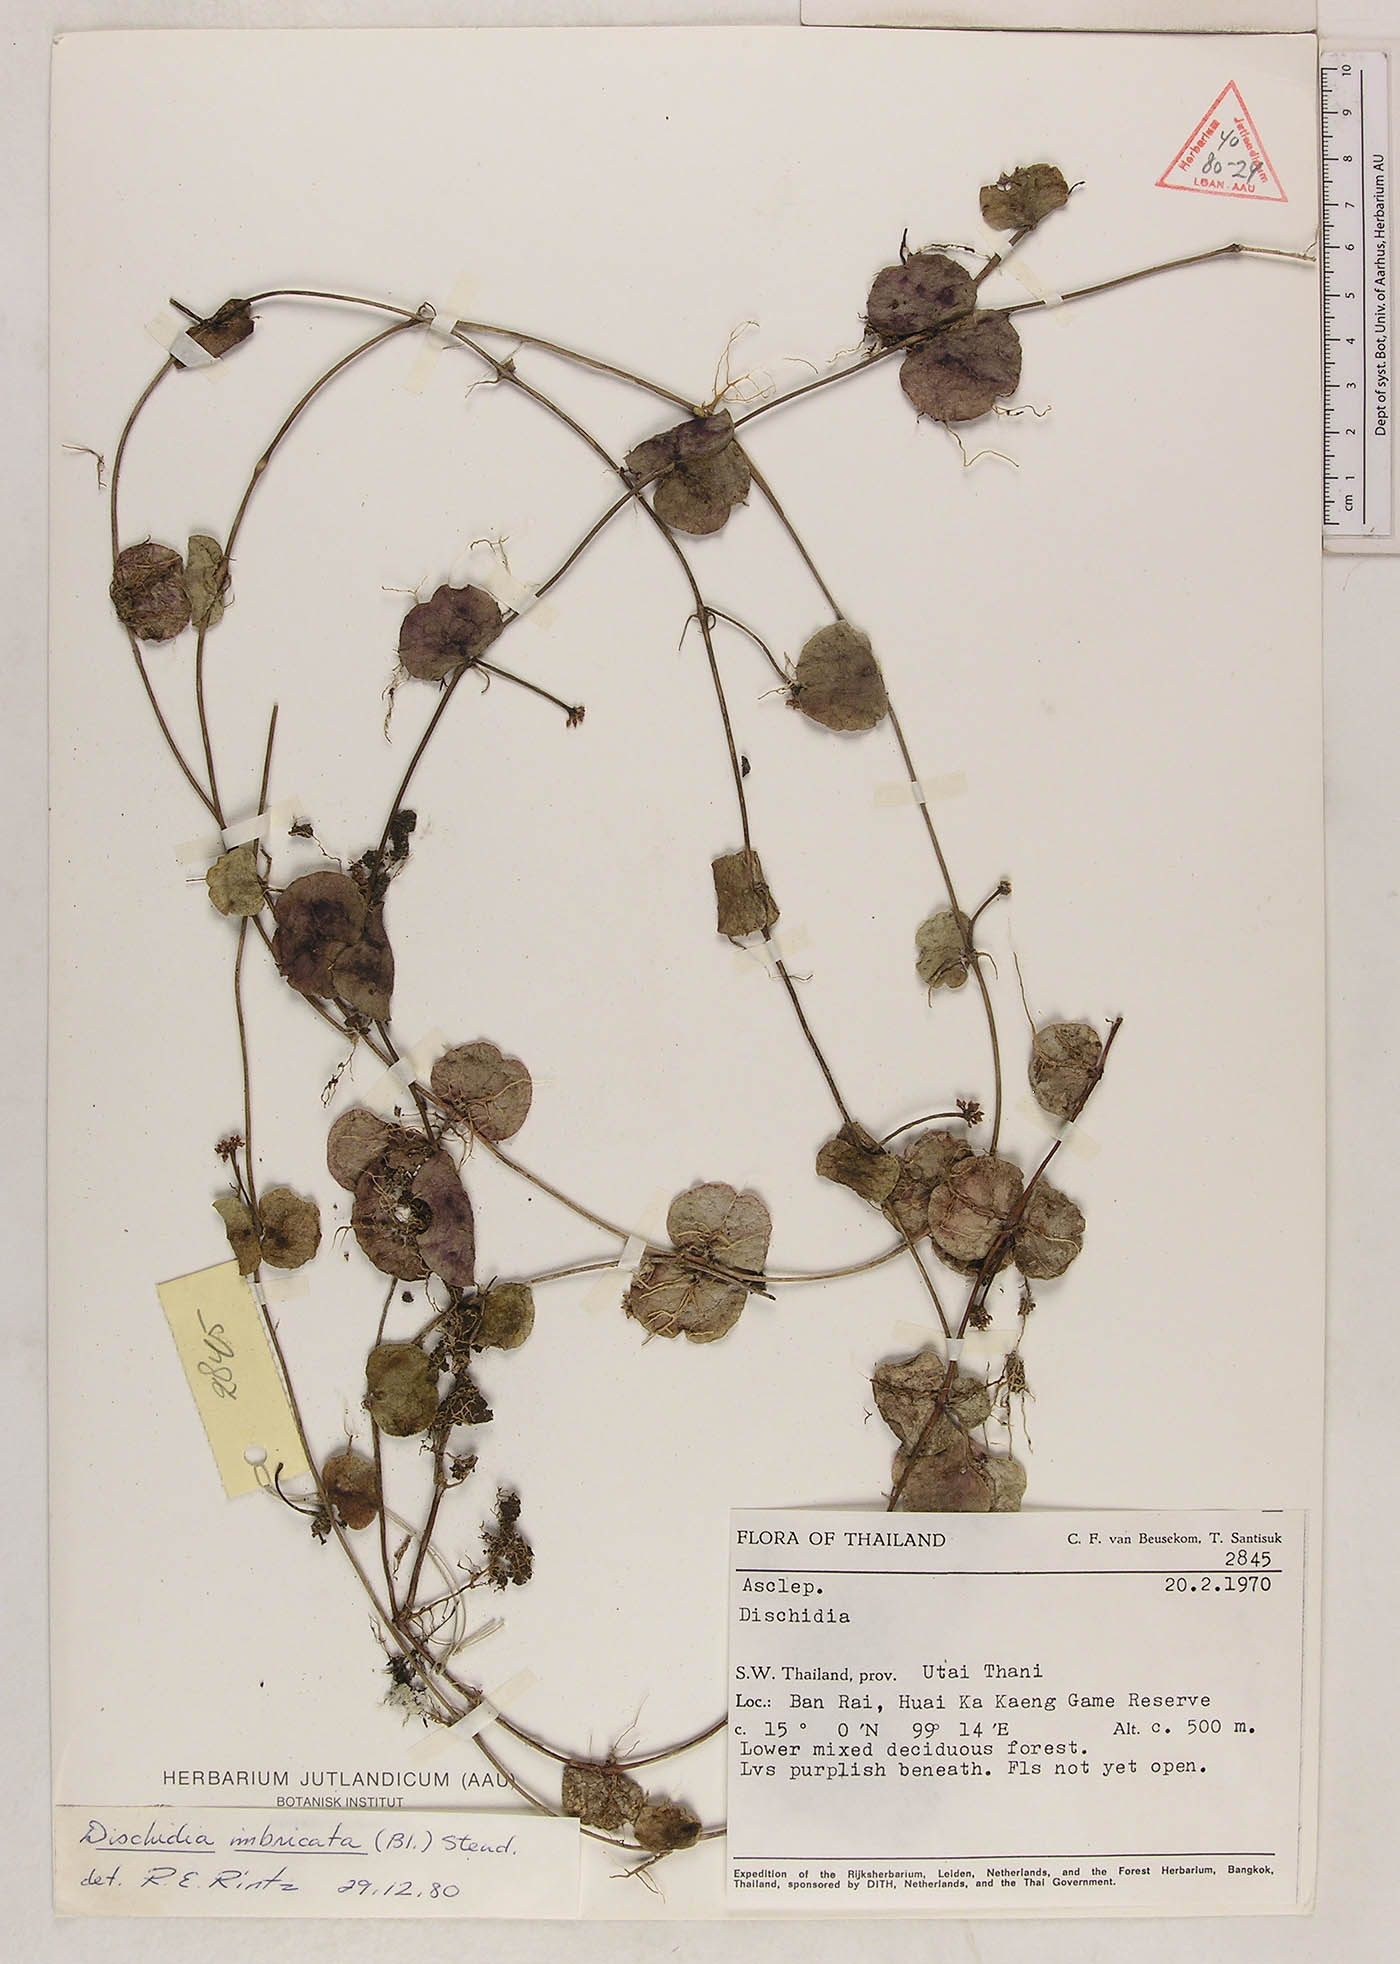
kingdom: Plantae
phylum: Tracheophyta
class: Magnoliopsida
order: Gentianales
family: Apocynaceae
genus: Dischidia
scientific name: Dischidia imbricata
